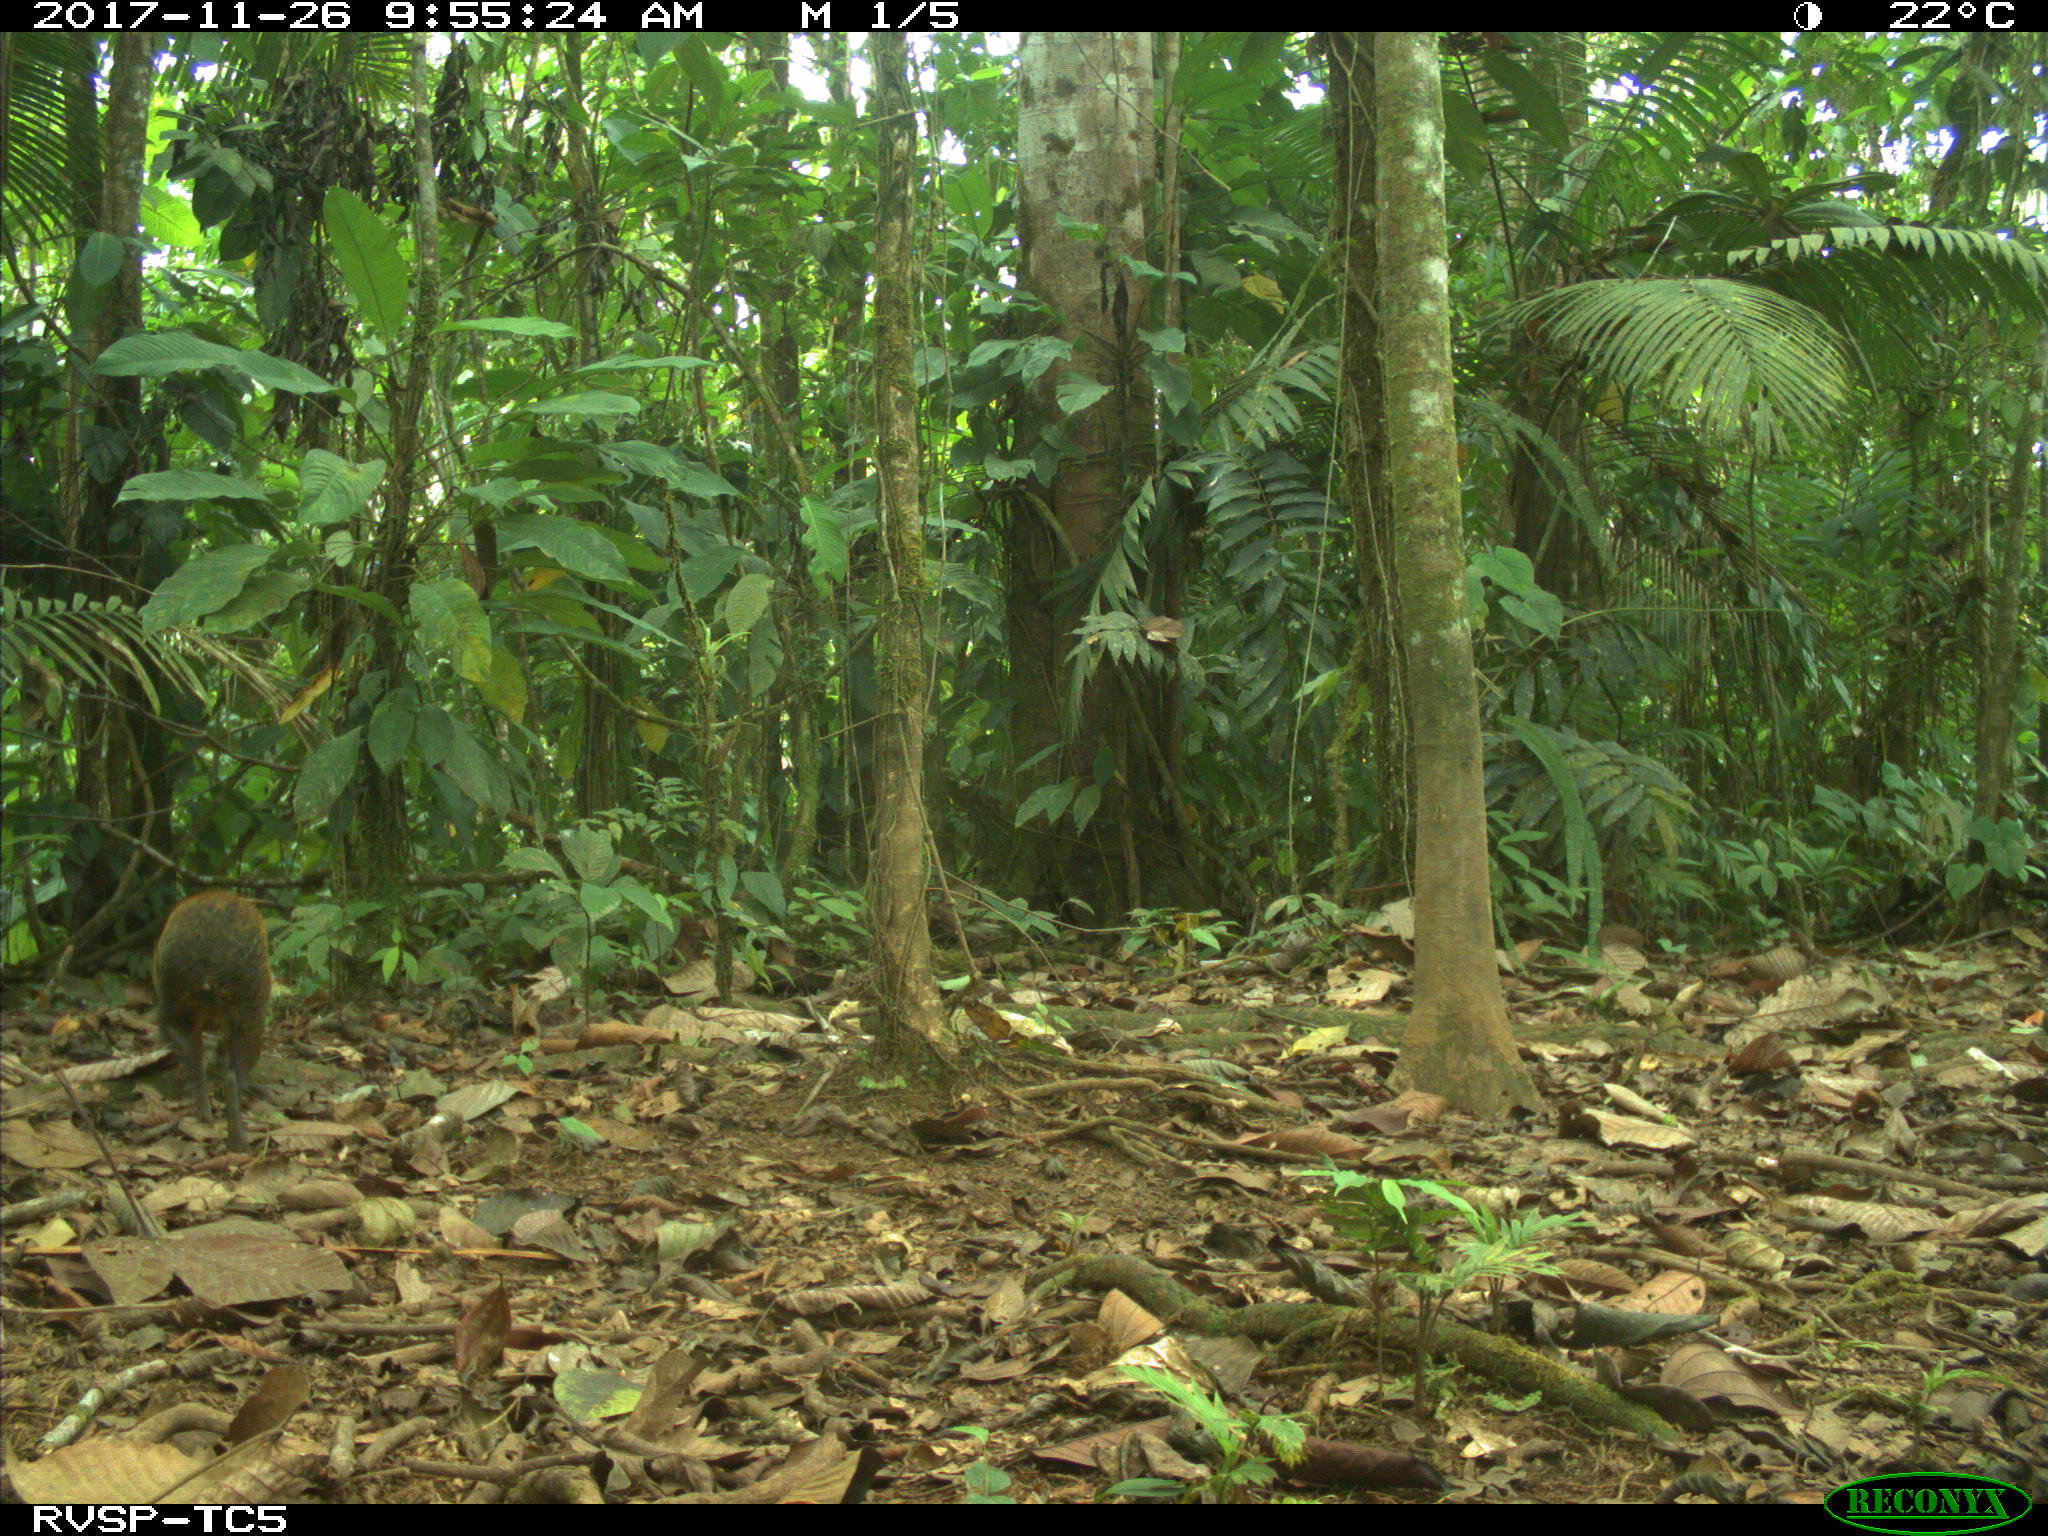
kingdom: Animalia
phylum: Chordata
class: Mammalia
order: Rodentia
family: Dasyproctidae
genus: Dasyprocta
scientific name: Dasyprocta punctata
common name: Central american agouti
